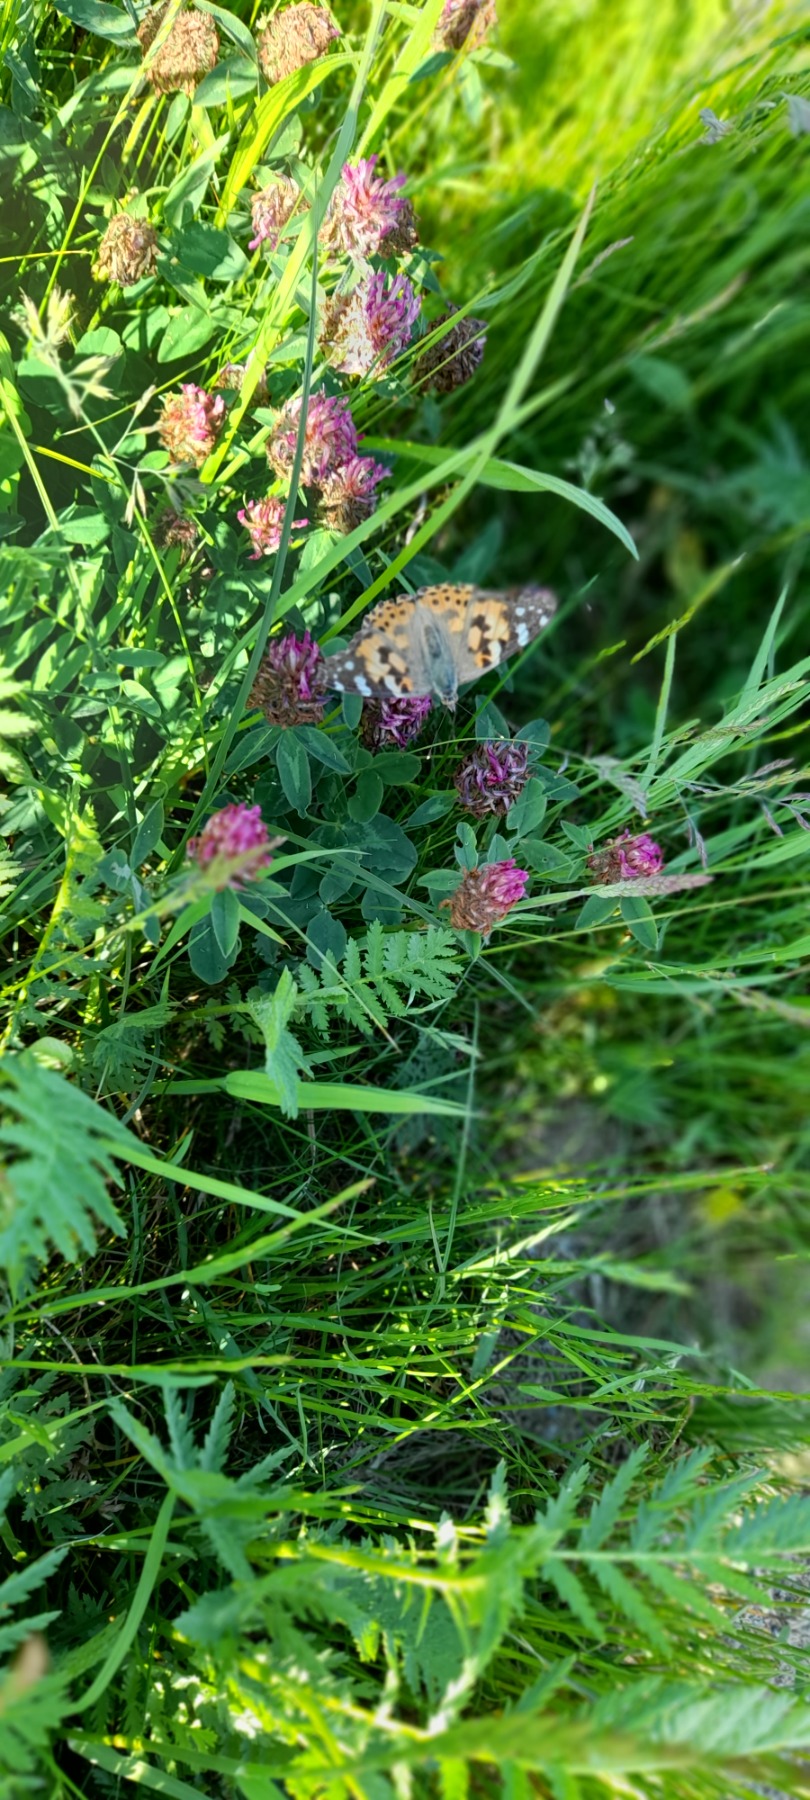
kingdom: Animalia
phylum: Arthropoda
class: Insecta
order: Lepidoptera
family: Nymphalidae
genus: Vanessa
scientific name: Vanessa cardui
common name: Tidselsommerfugl
